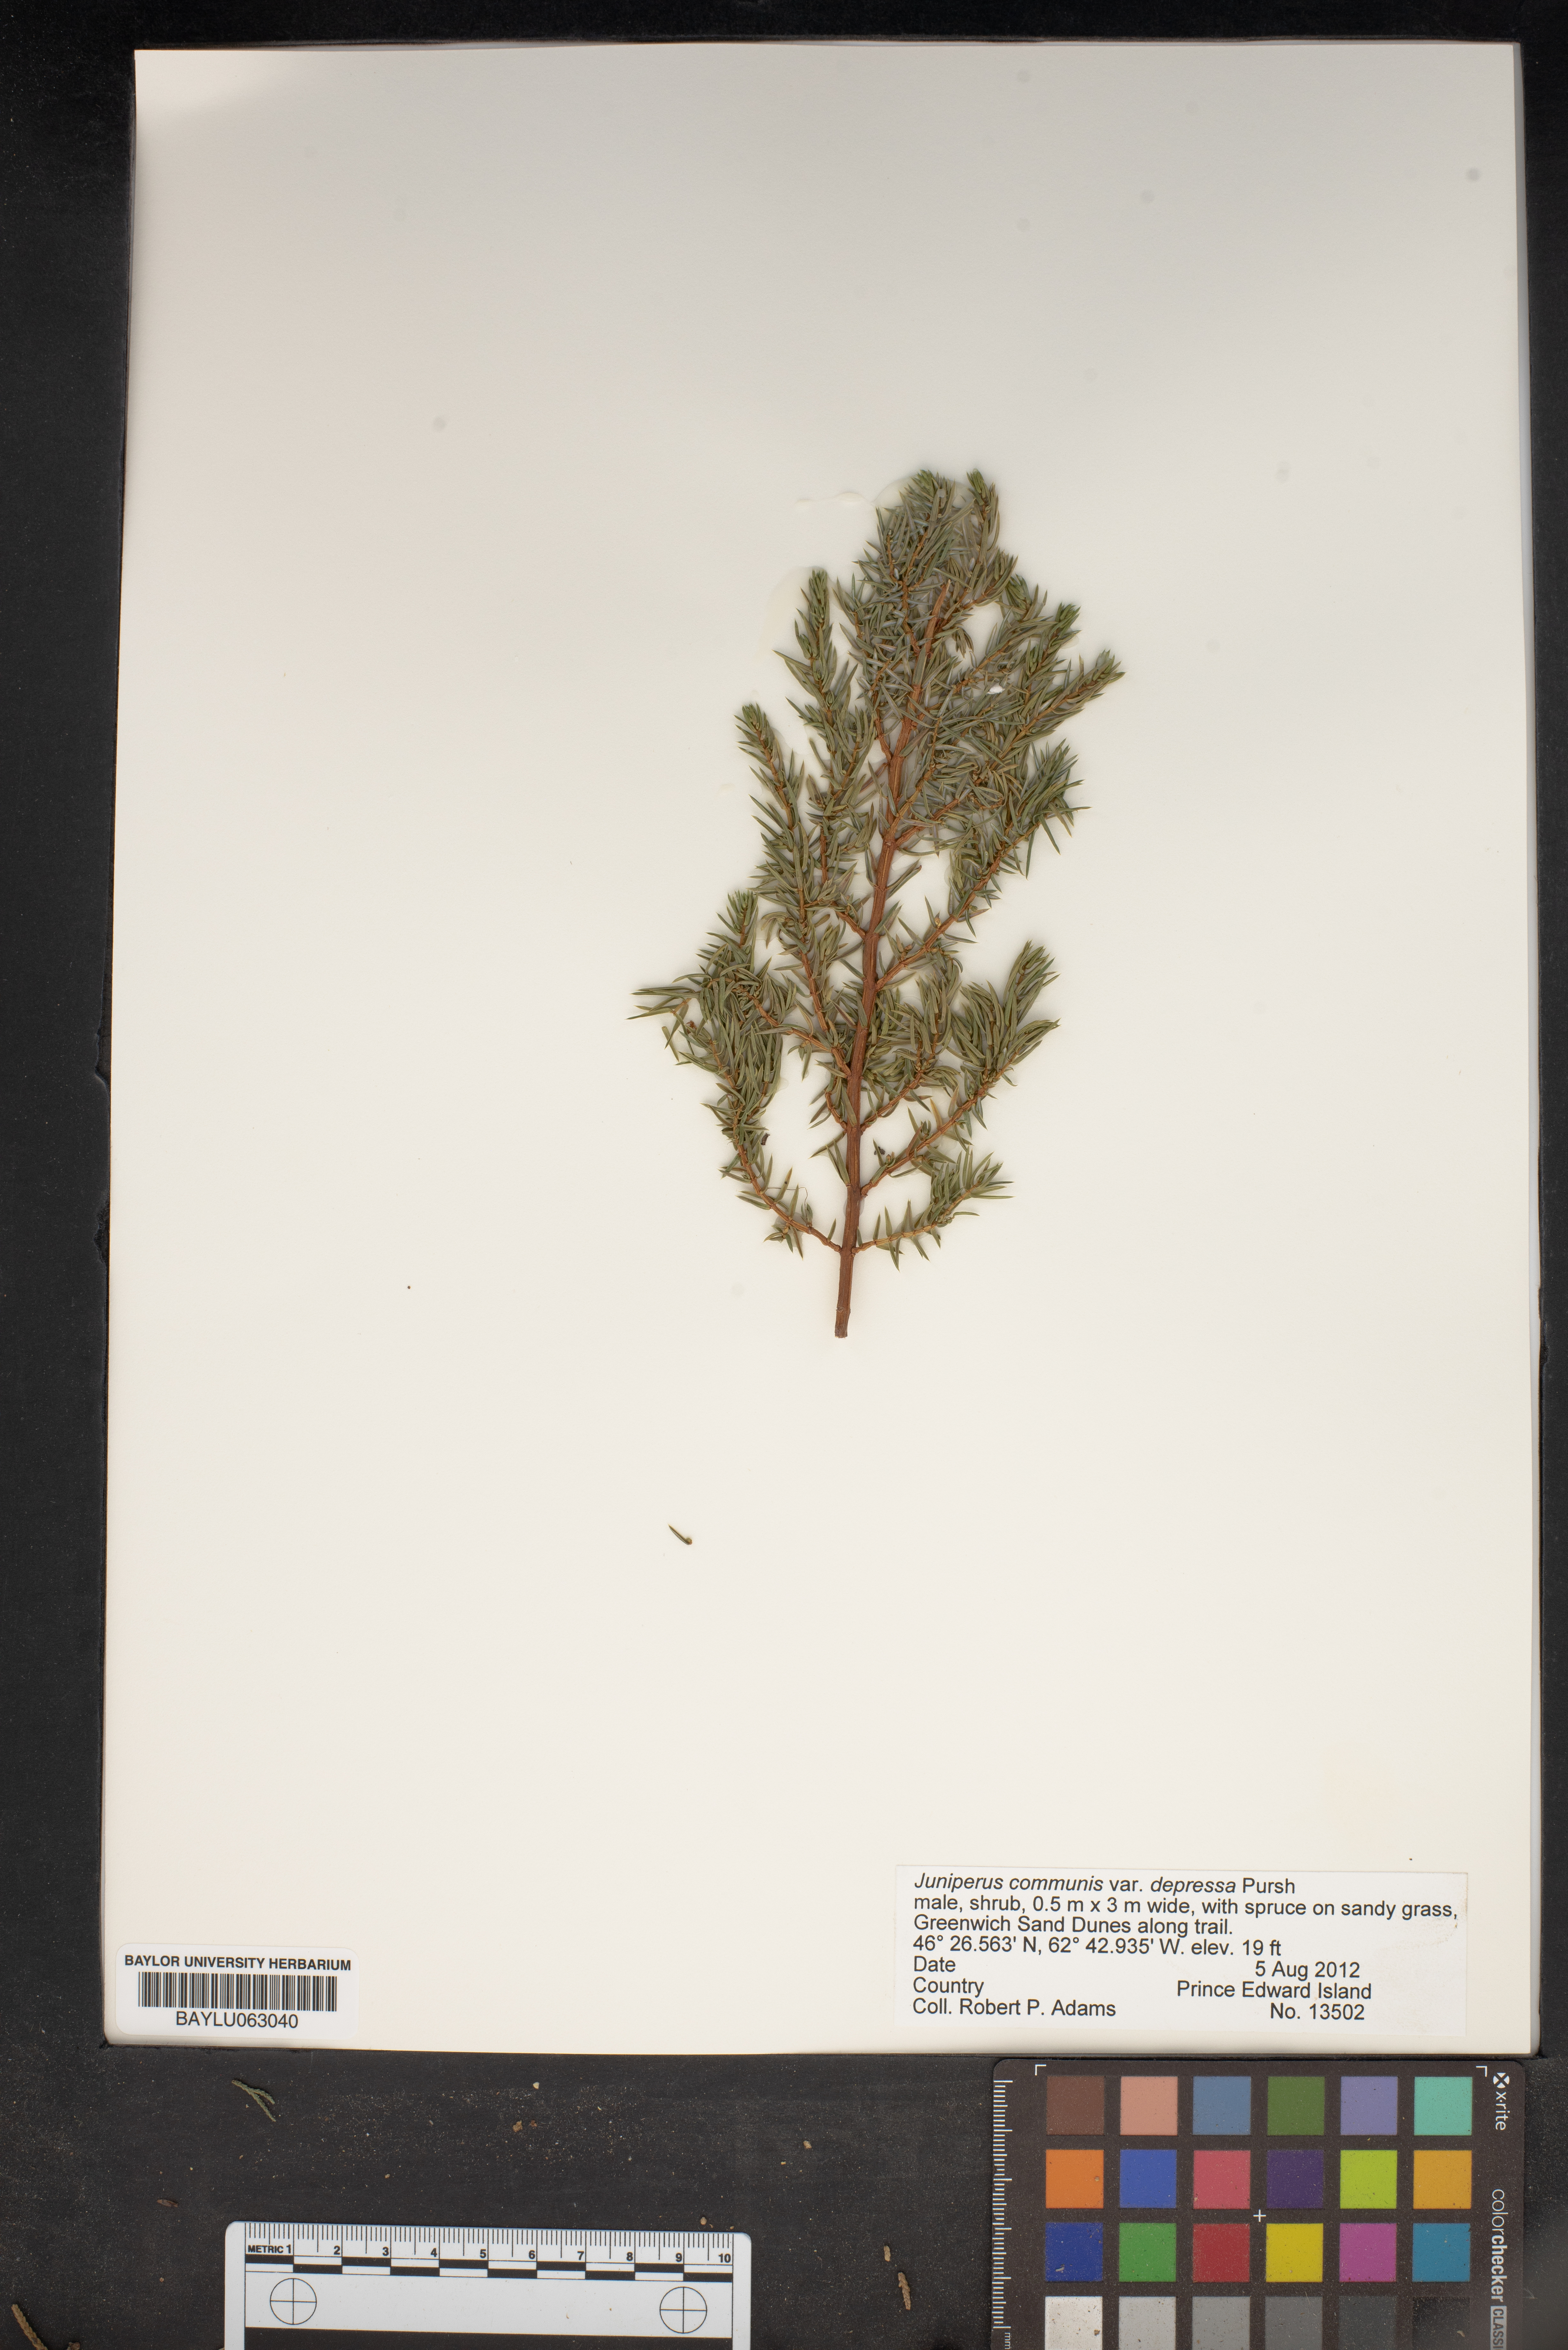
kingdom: Plantae
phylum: Tracheophyta
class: Pinopsida
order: Pinales
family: Cupressaceae
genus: Juniperus
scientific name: Juniperus communis
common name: Common juniper
